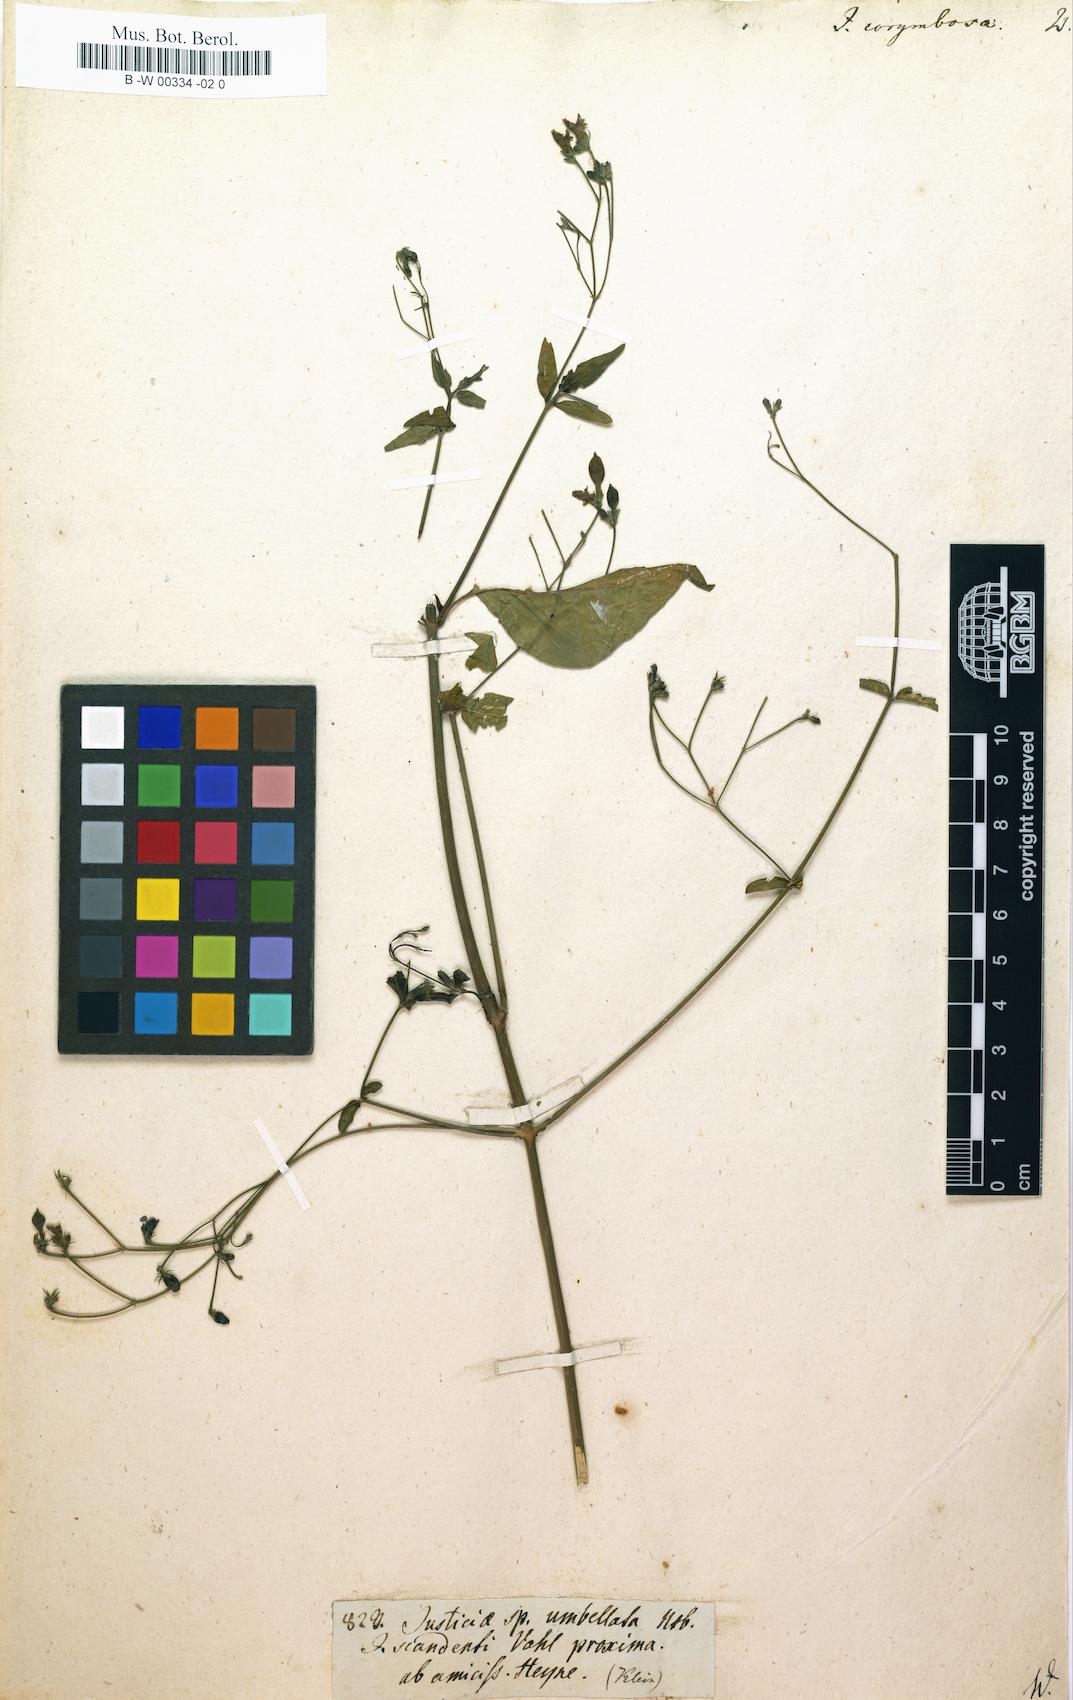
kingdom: Plantae
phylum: Tracheophyta
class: Magnoliopsida
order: Lamiales
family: Acanthaceae
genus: Justicia
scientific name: Justicia scandens
